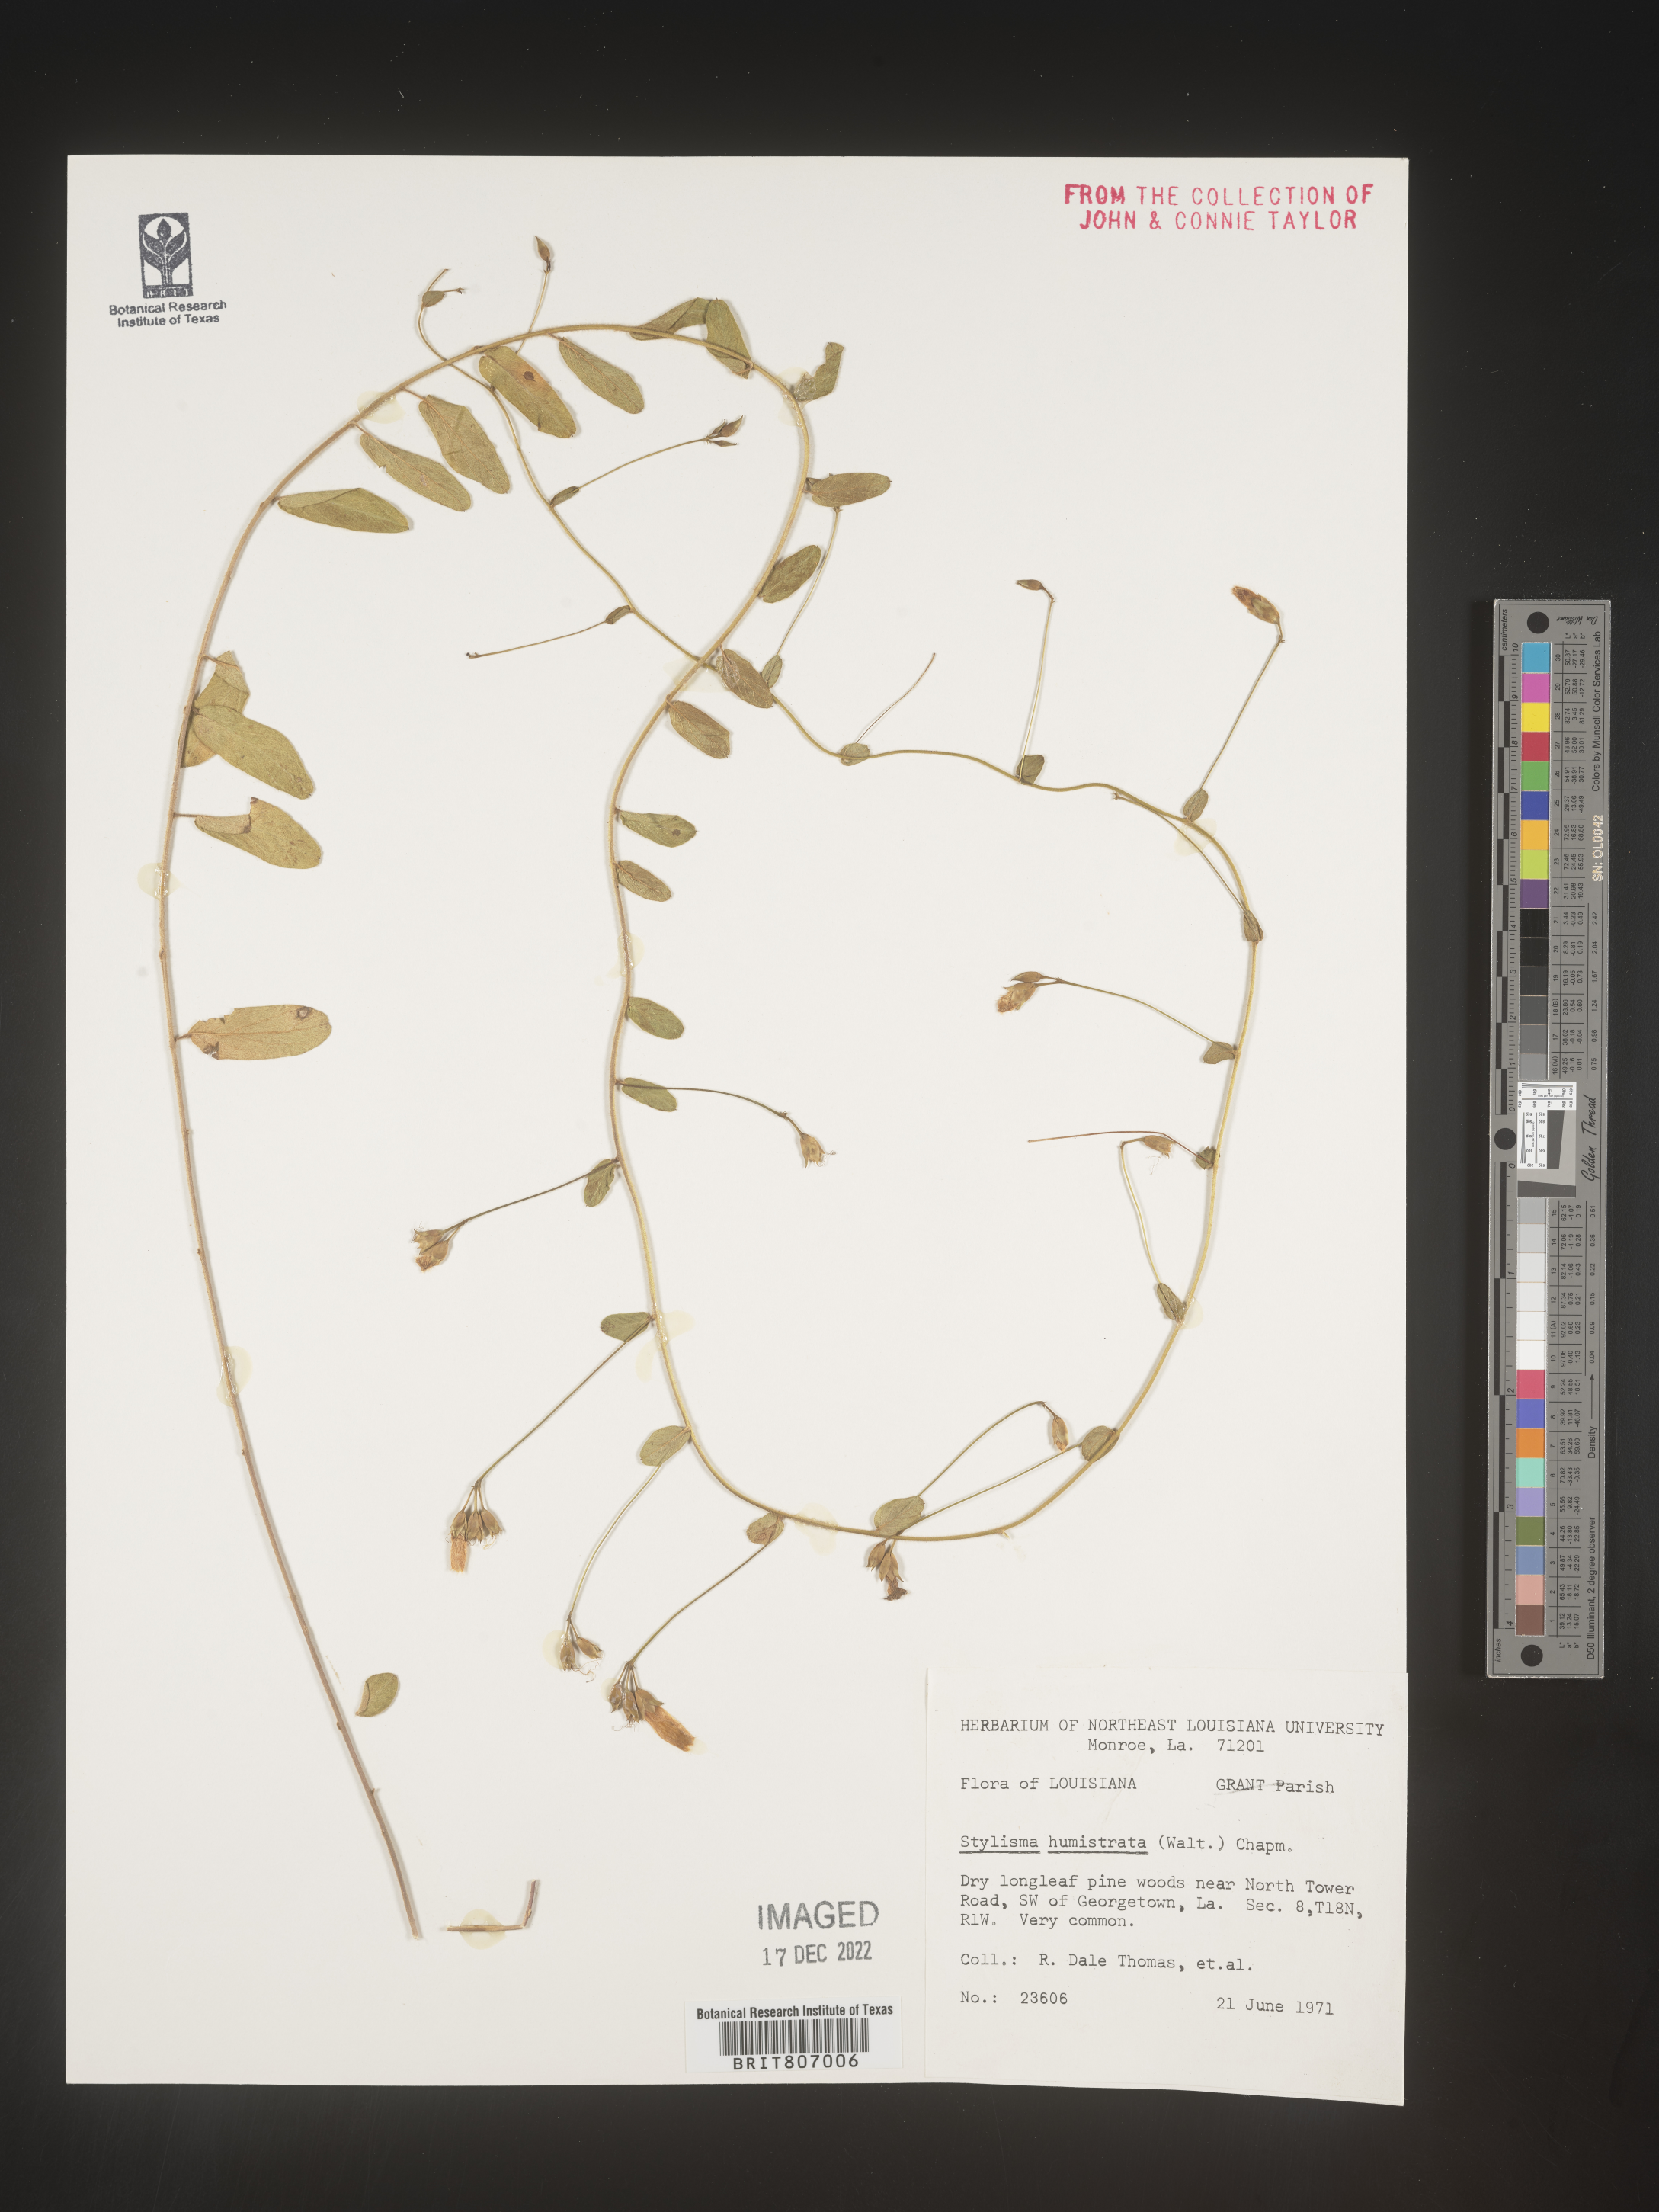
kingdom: Plantae
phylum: Tracheophyta
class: Magnoliopsida
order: Solanales
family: Convolvulaceae
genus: Stylisma
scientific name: Stylisma humistrata
